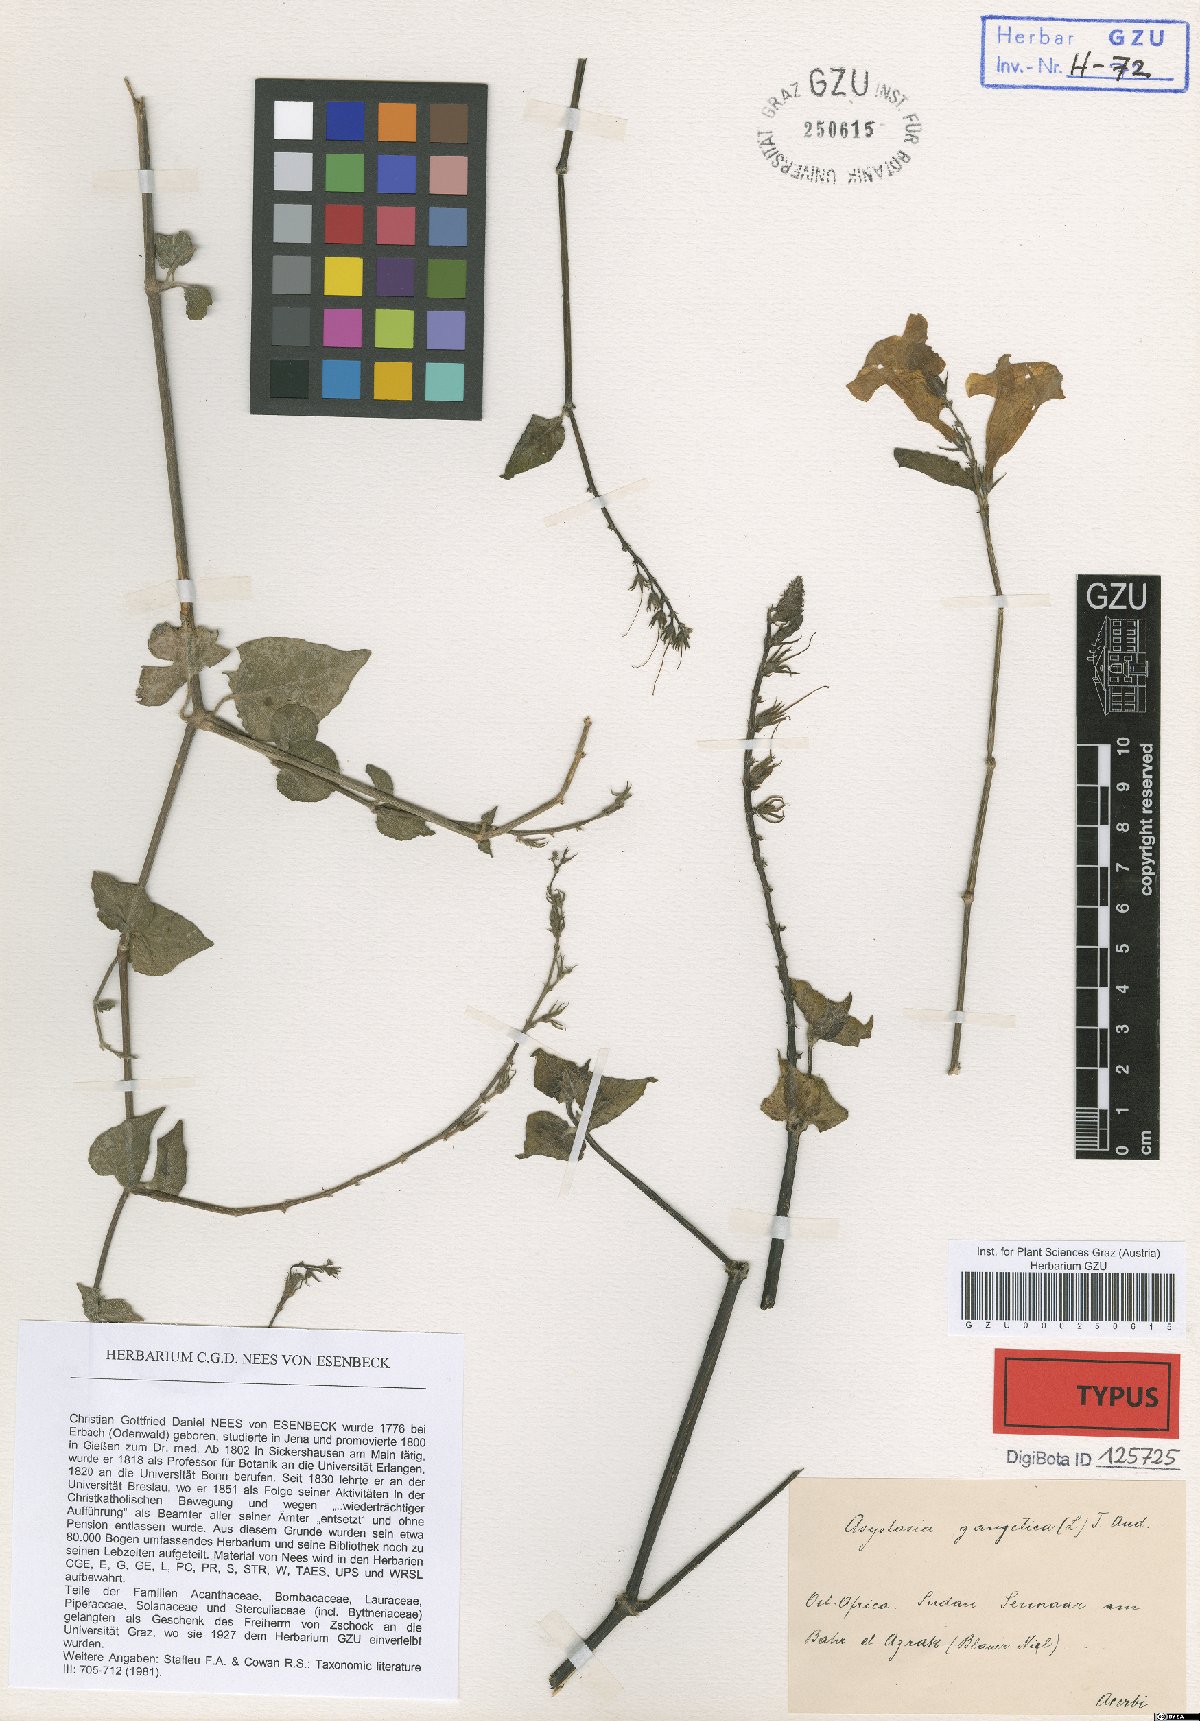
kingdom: Plantae
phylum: Tracheophyta
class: Magnoliopsida
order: Lamiales
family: Acanthaceae
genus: Asystasia
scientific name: Asystasia intrusa
